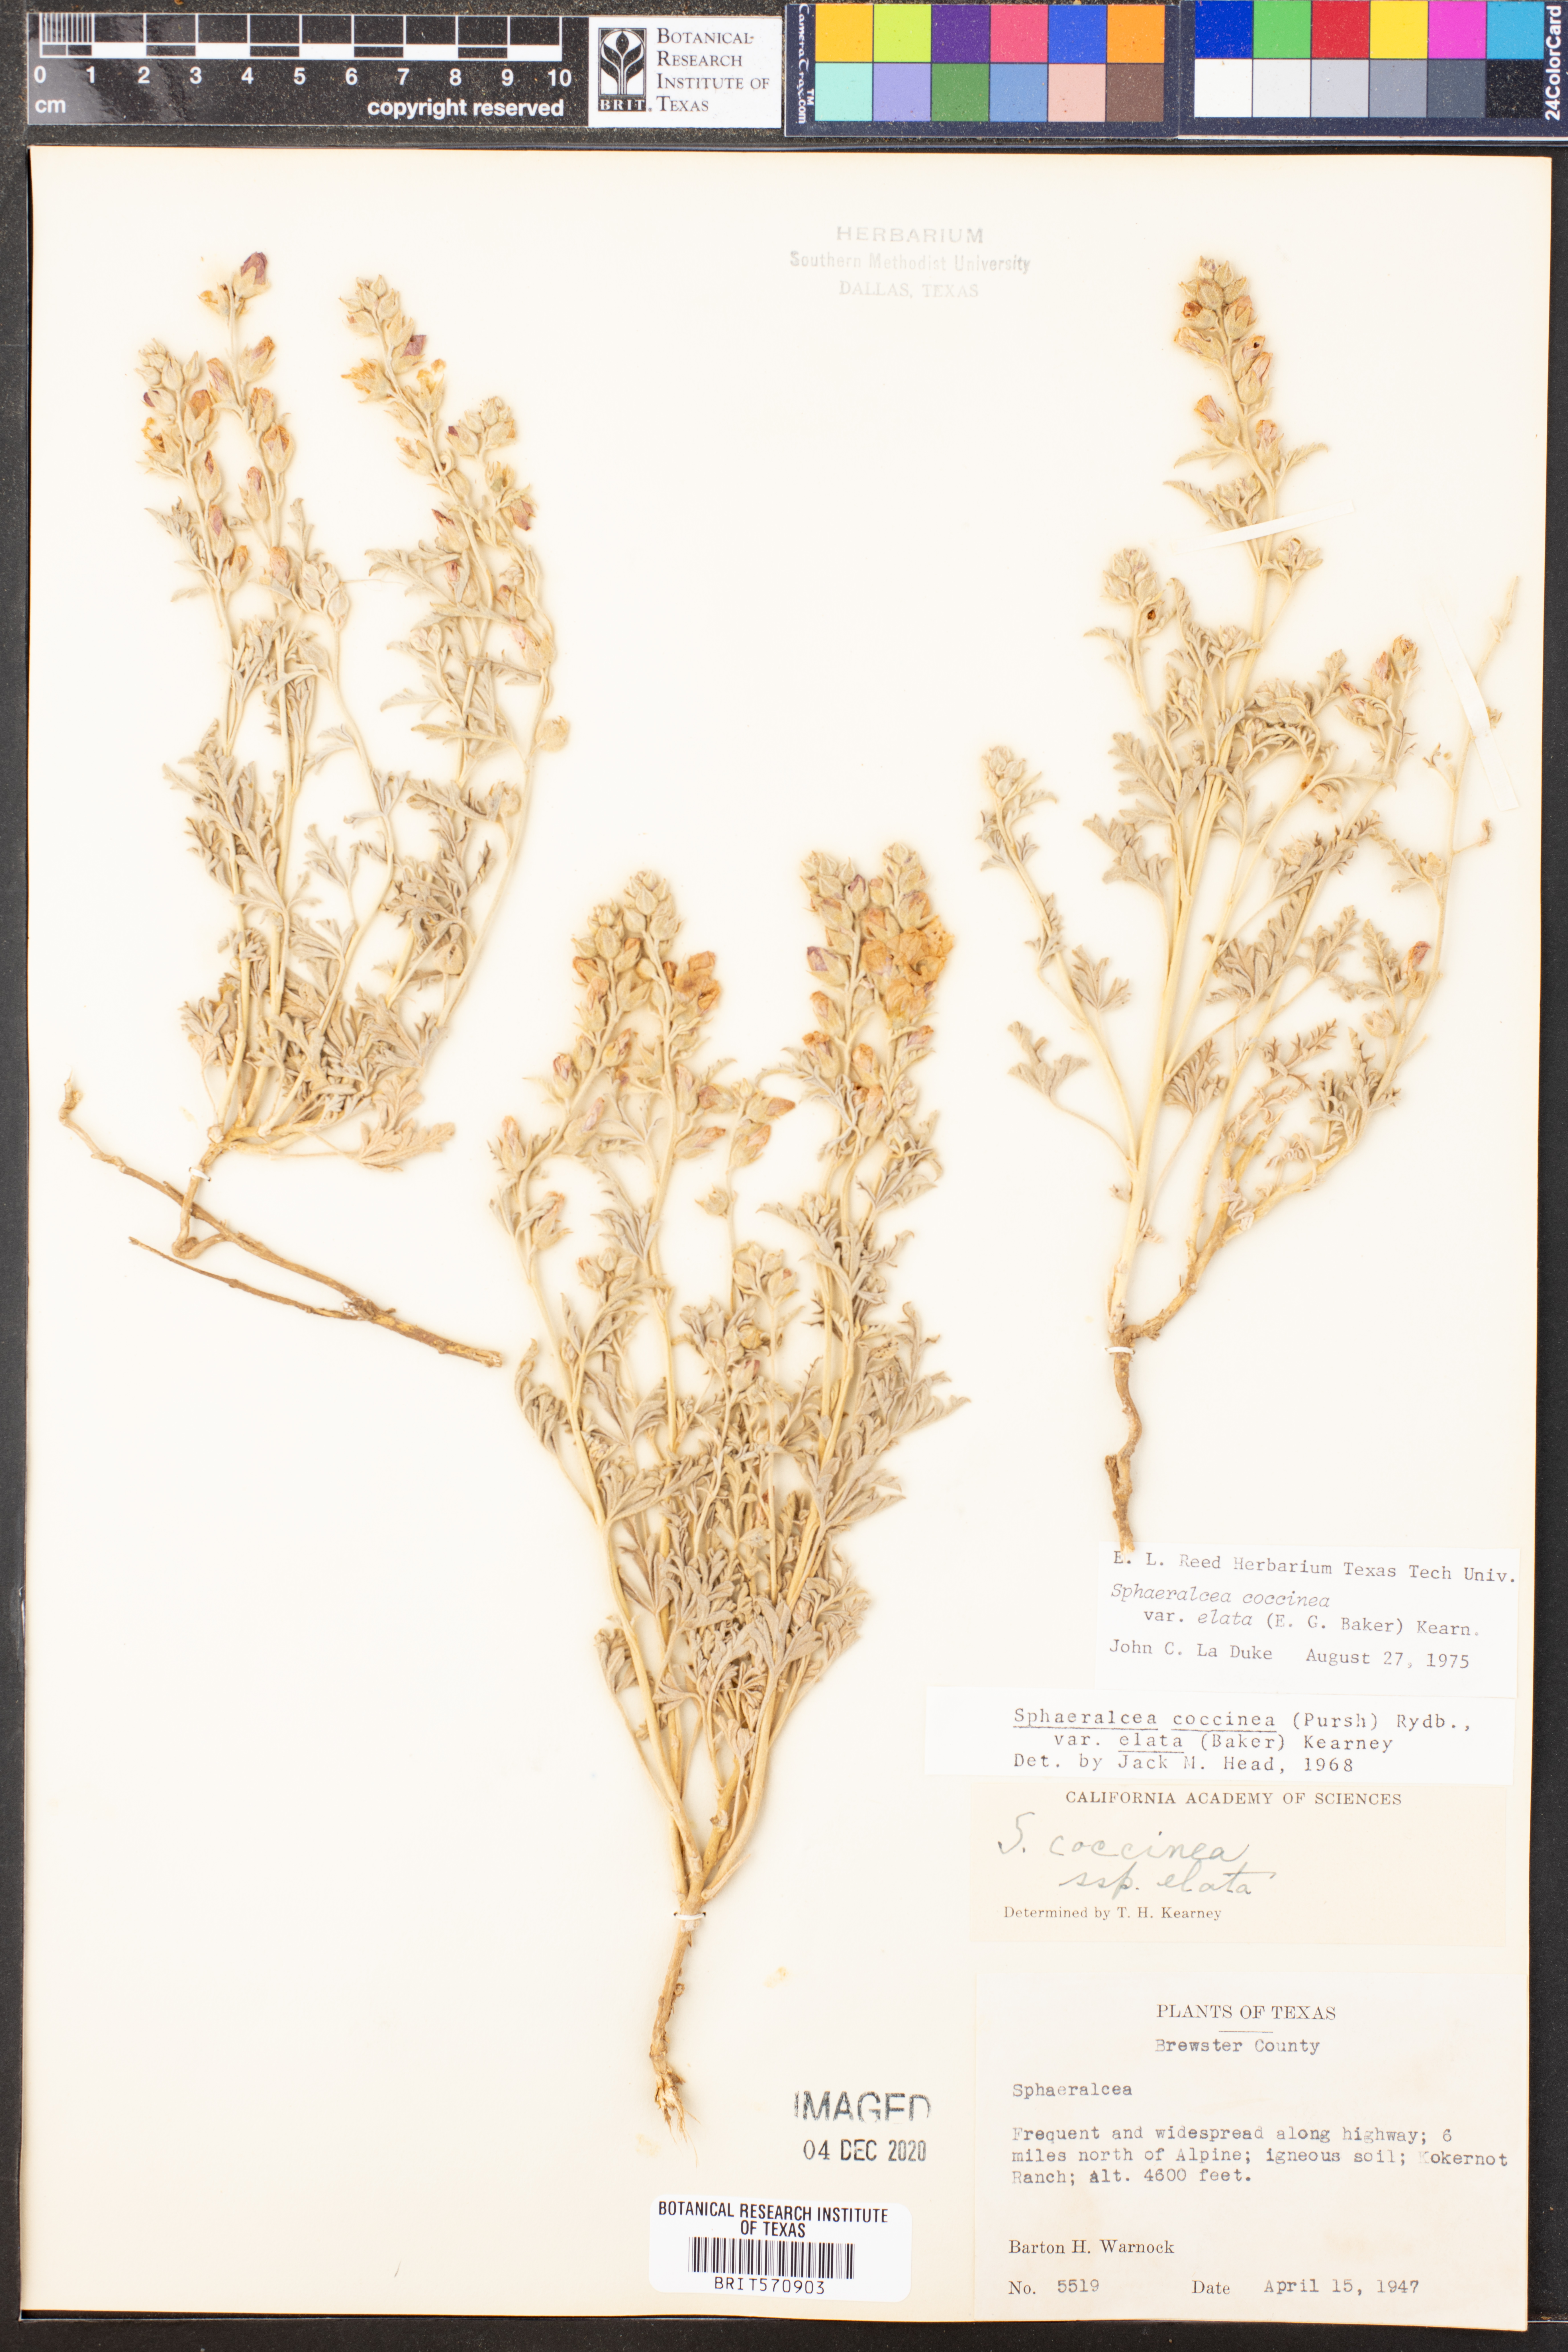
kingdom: Plantae
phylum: Tracheophyta
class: Magnoliopsida
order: Malvales
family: Malvaceae
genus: Sphaeralcea
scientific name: Sphaeralcea coccinea
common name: Moss-rose
